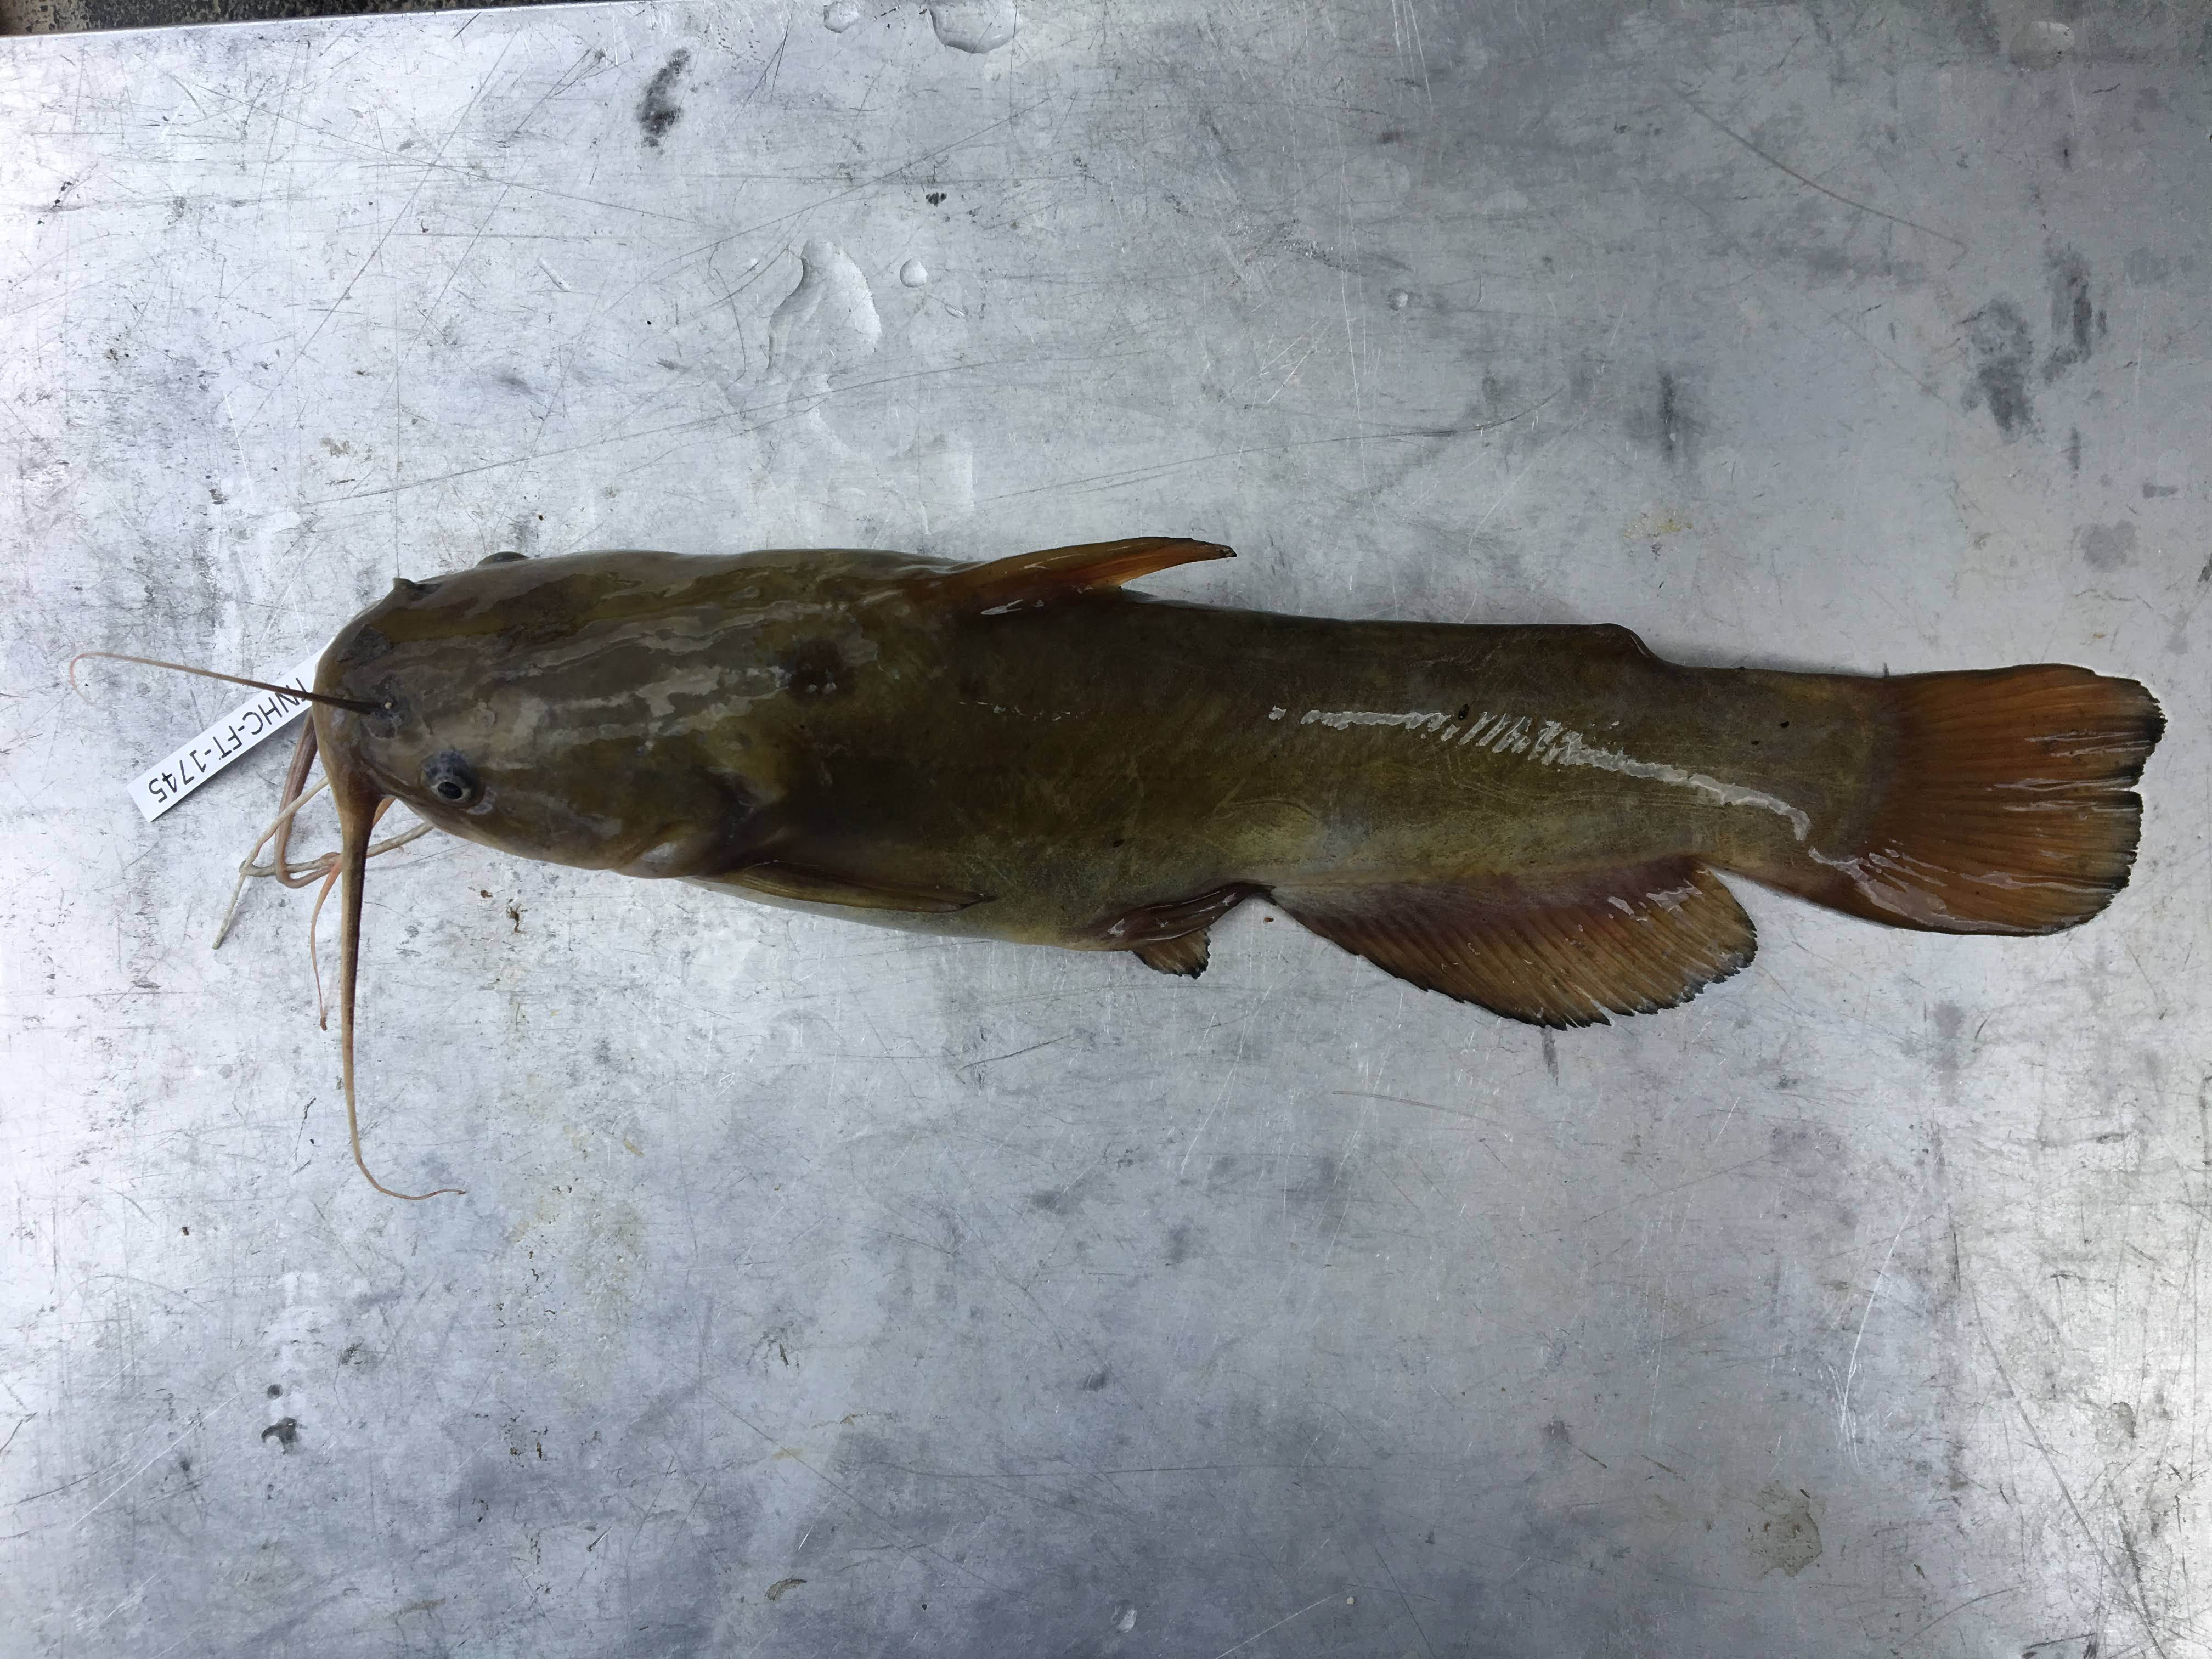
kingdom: Animalia
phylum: Chordata
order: Siluriformes
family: Ictaluridae
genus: Ameiurus
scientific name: Ameiurus natalis
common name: Yellow bullhead
